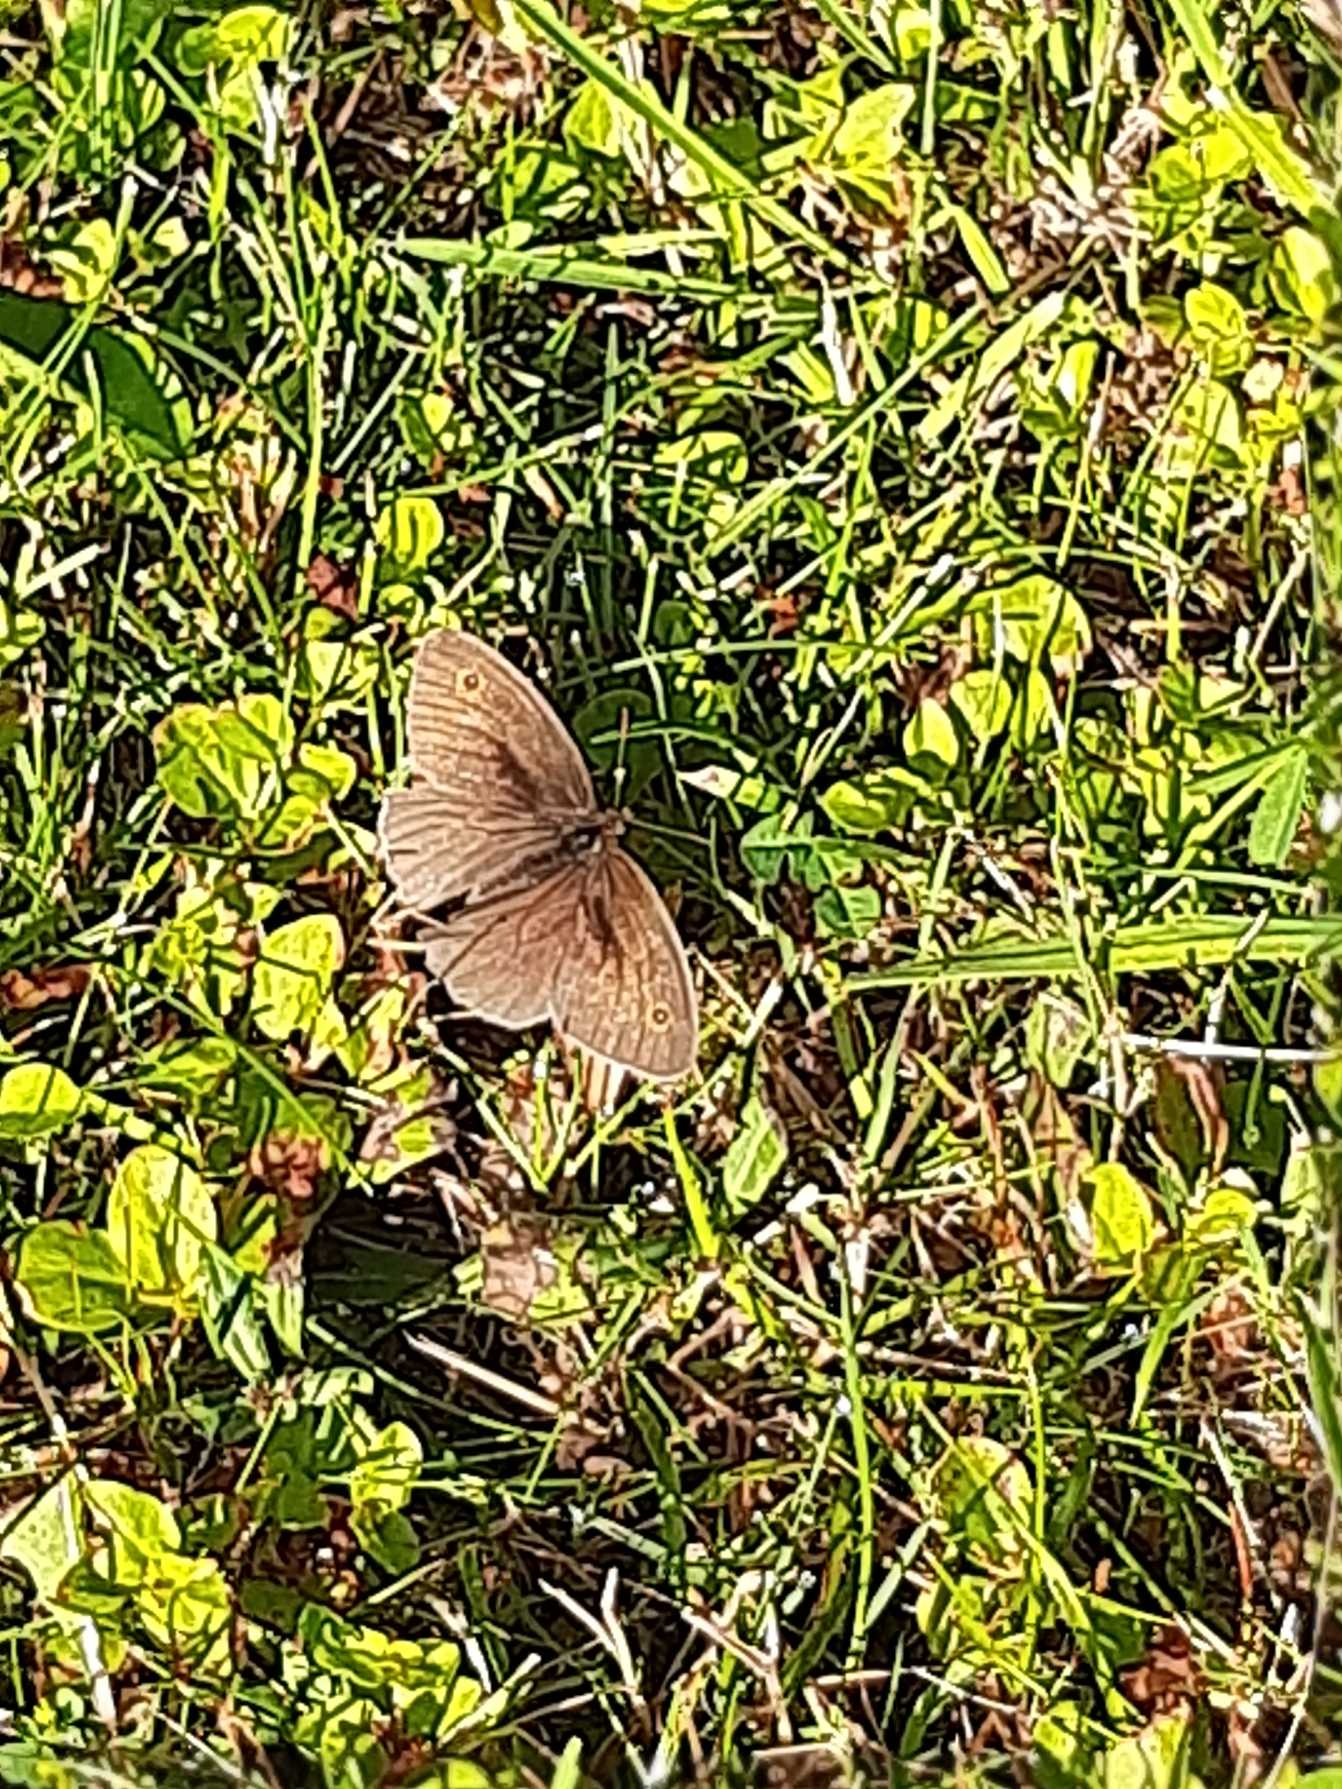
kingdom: Animalia
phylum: Arthropoda
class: Insecta
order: Lepidoptera
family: Nymphalidae
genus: Maniola
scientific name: Maniola jurtina
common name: Græsrandøje
